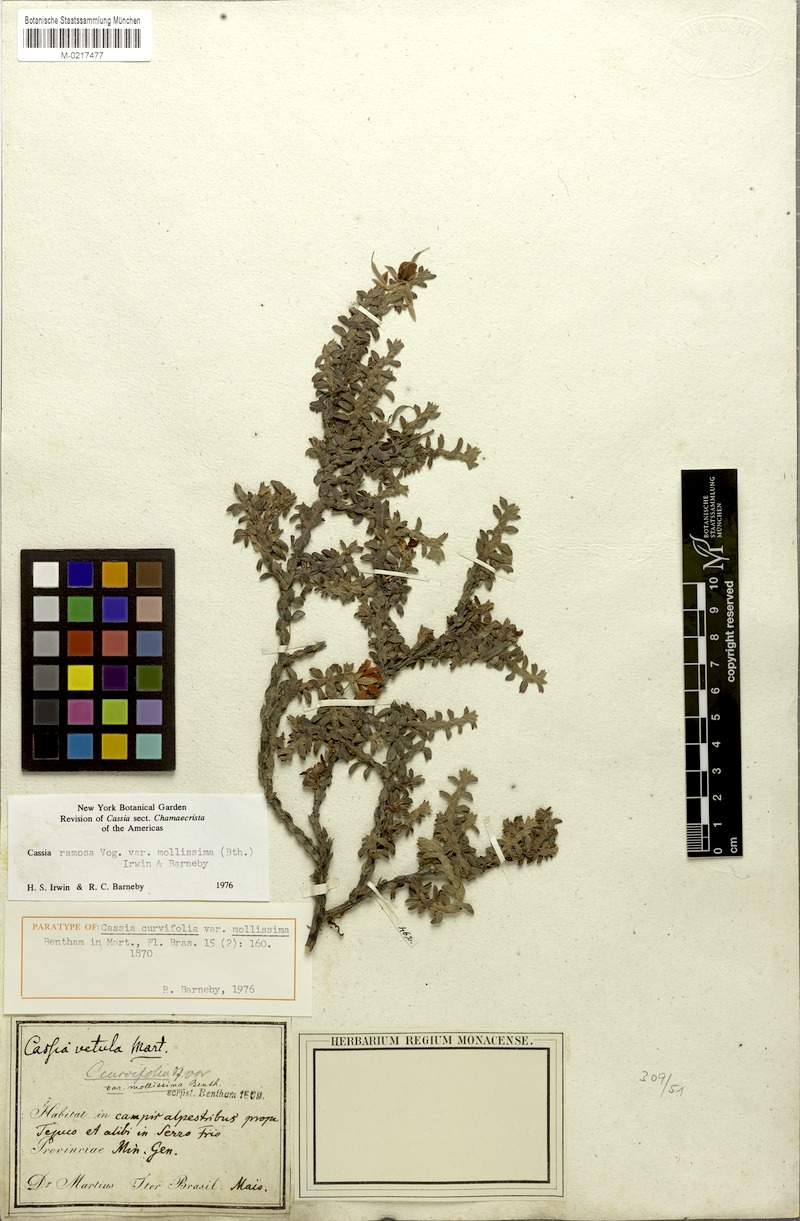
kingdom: Plantae
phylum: Tracheophyta
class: Magnoliopsida
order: Fabales
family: Fabaceae
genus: Chamaecrista
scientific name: Chamaecrista ramosa
